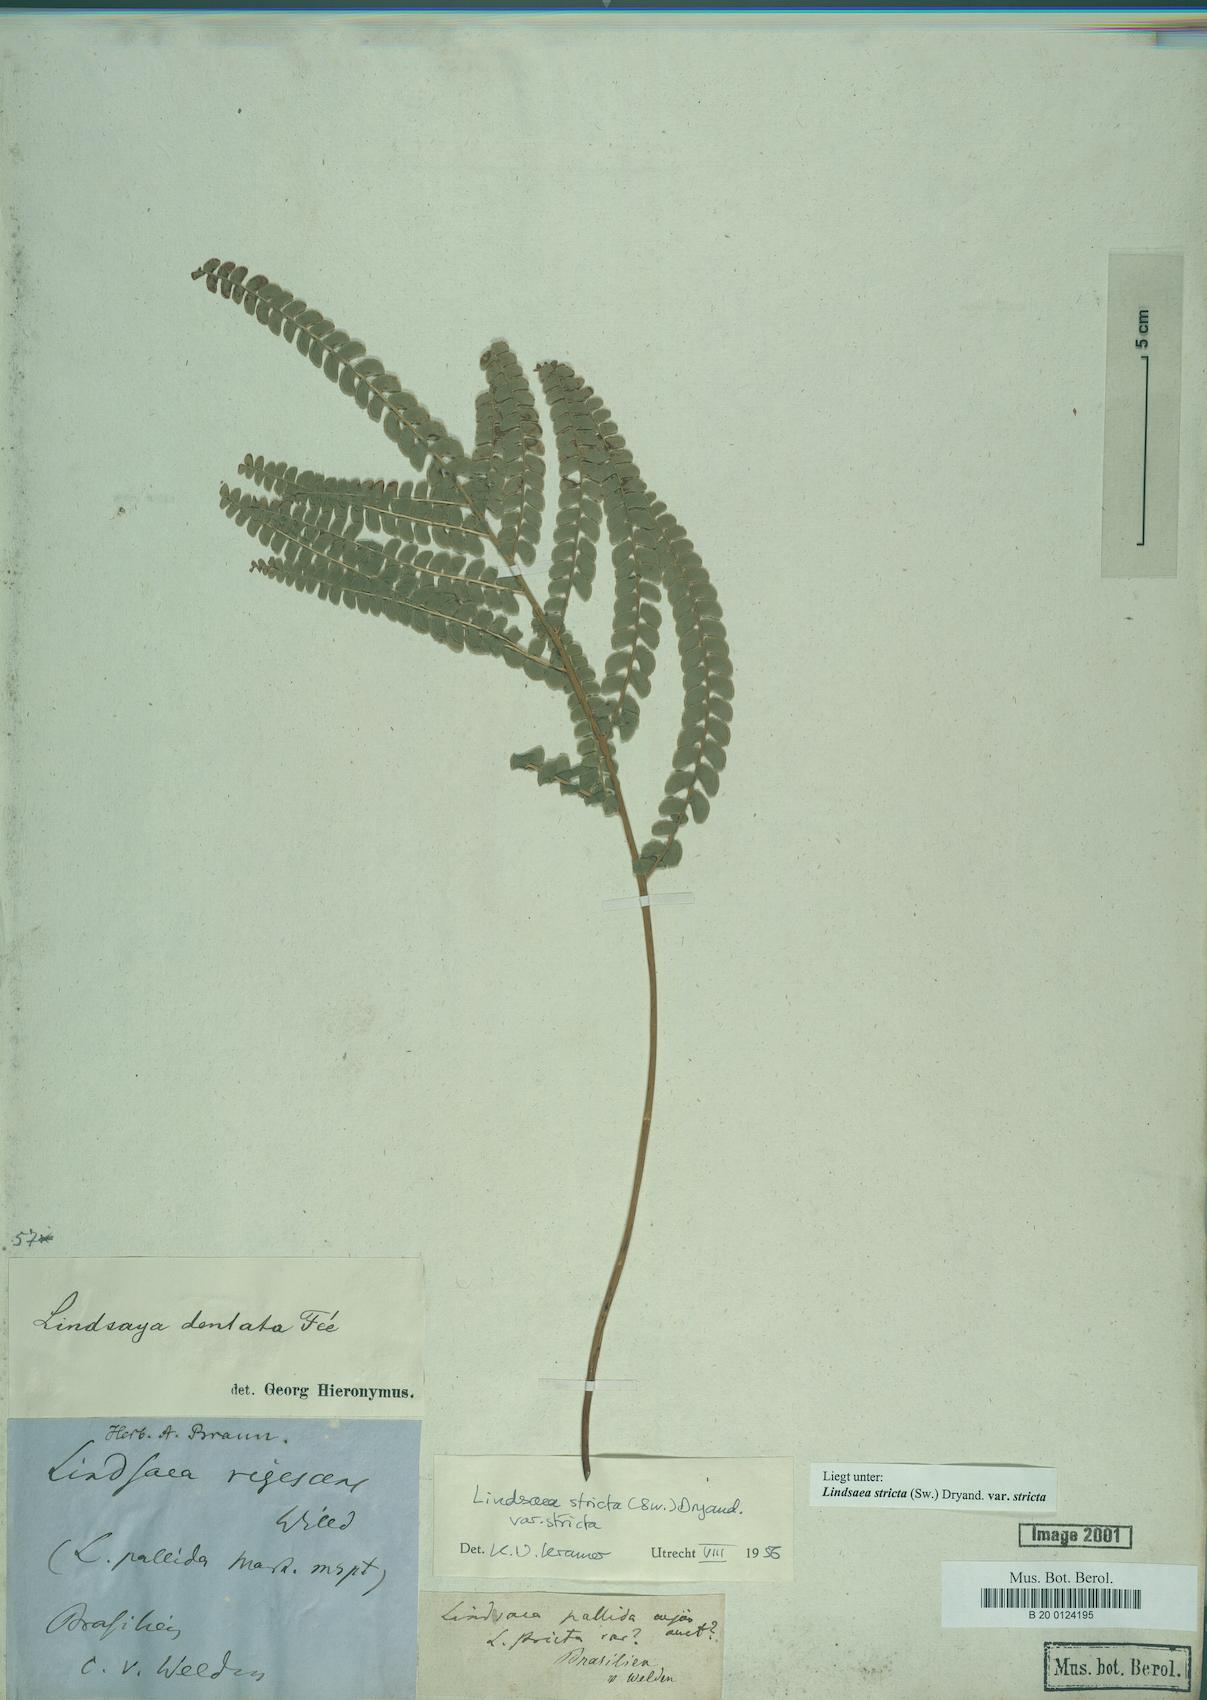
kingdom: Plantae
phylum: Tracheophyta
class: Polypodiopsida
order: Polypodiales
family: Lindsaeaceae
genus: Lindsaea
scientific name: Lindsaea stricta
